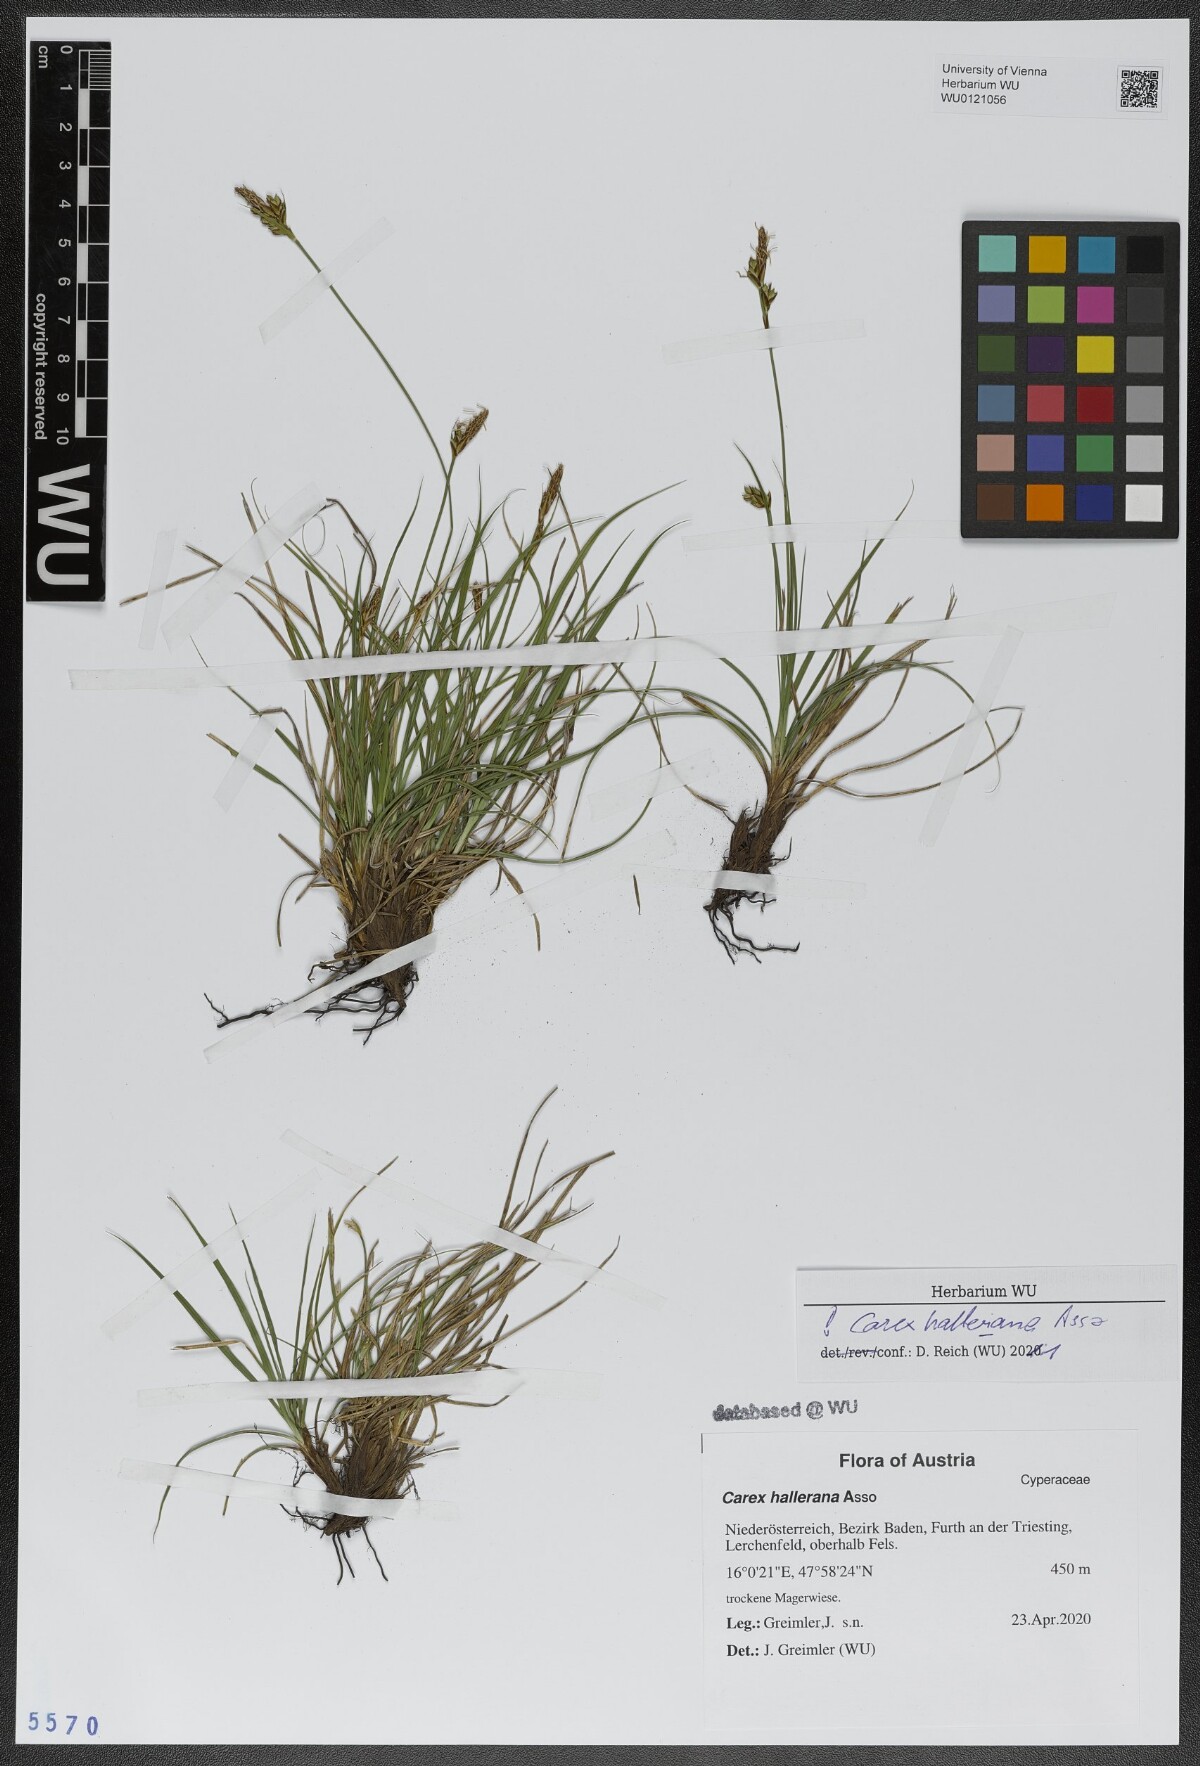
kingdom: Plantae
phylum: Tracheophyta
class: Liliopsida
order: Poales
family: Cyperaceae
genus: Carex
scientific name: Carex halleriana
